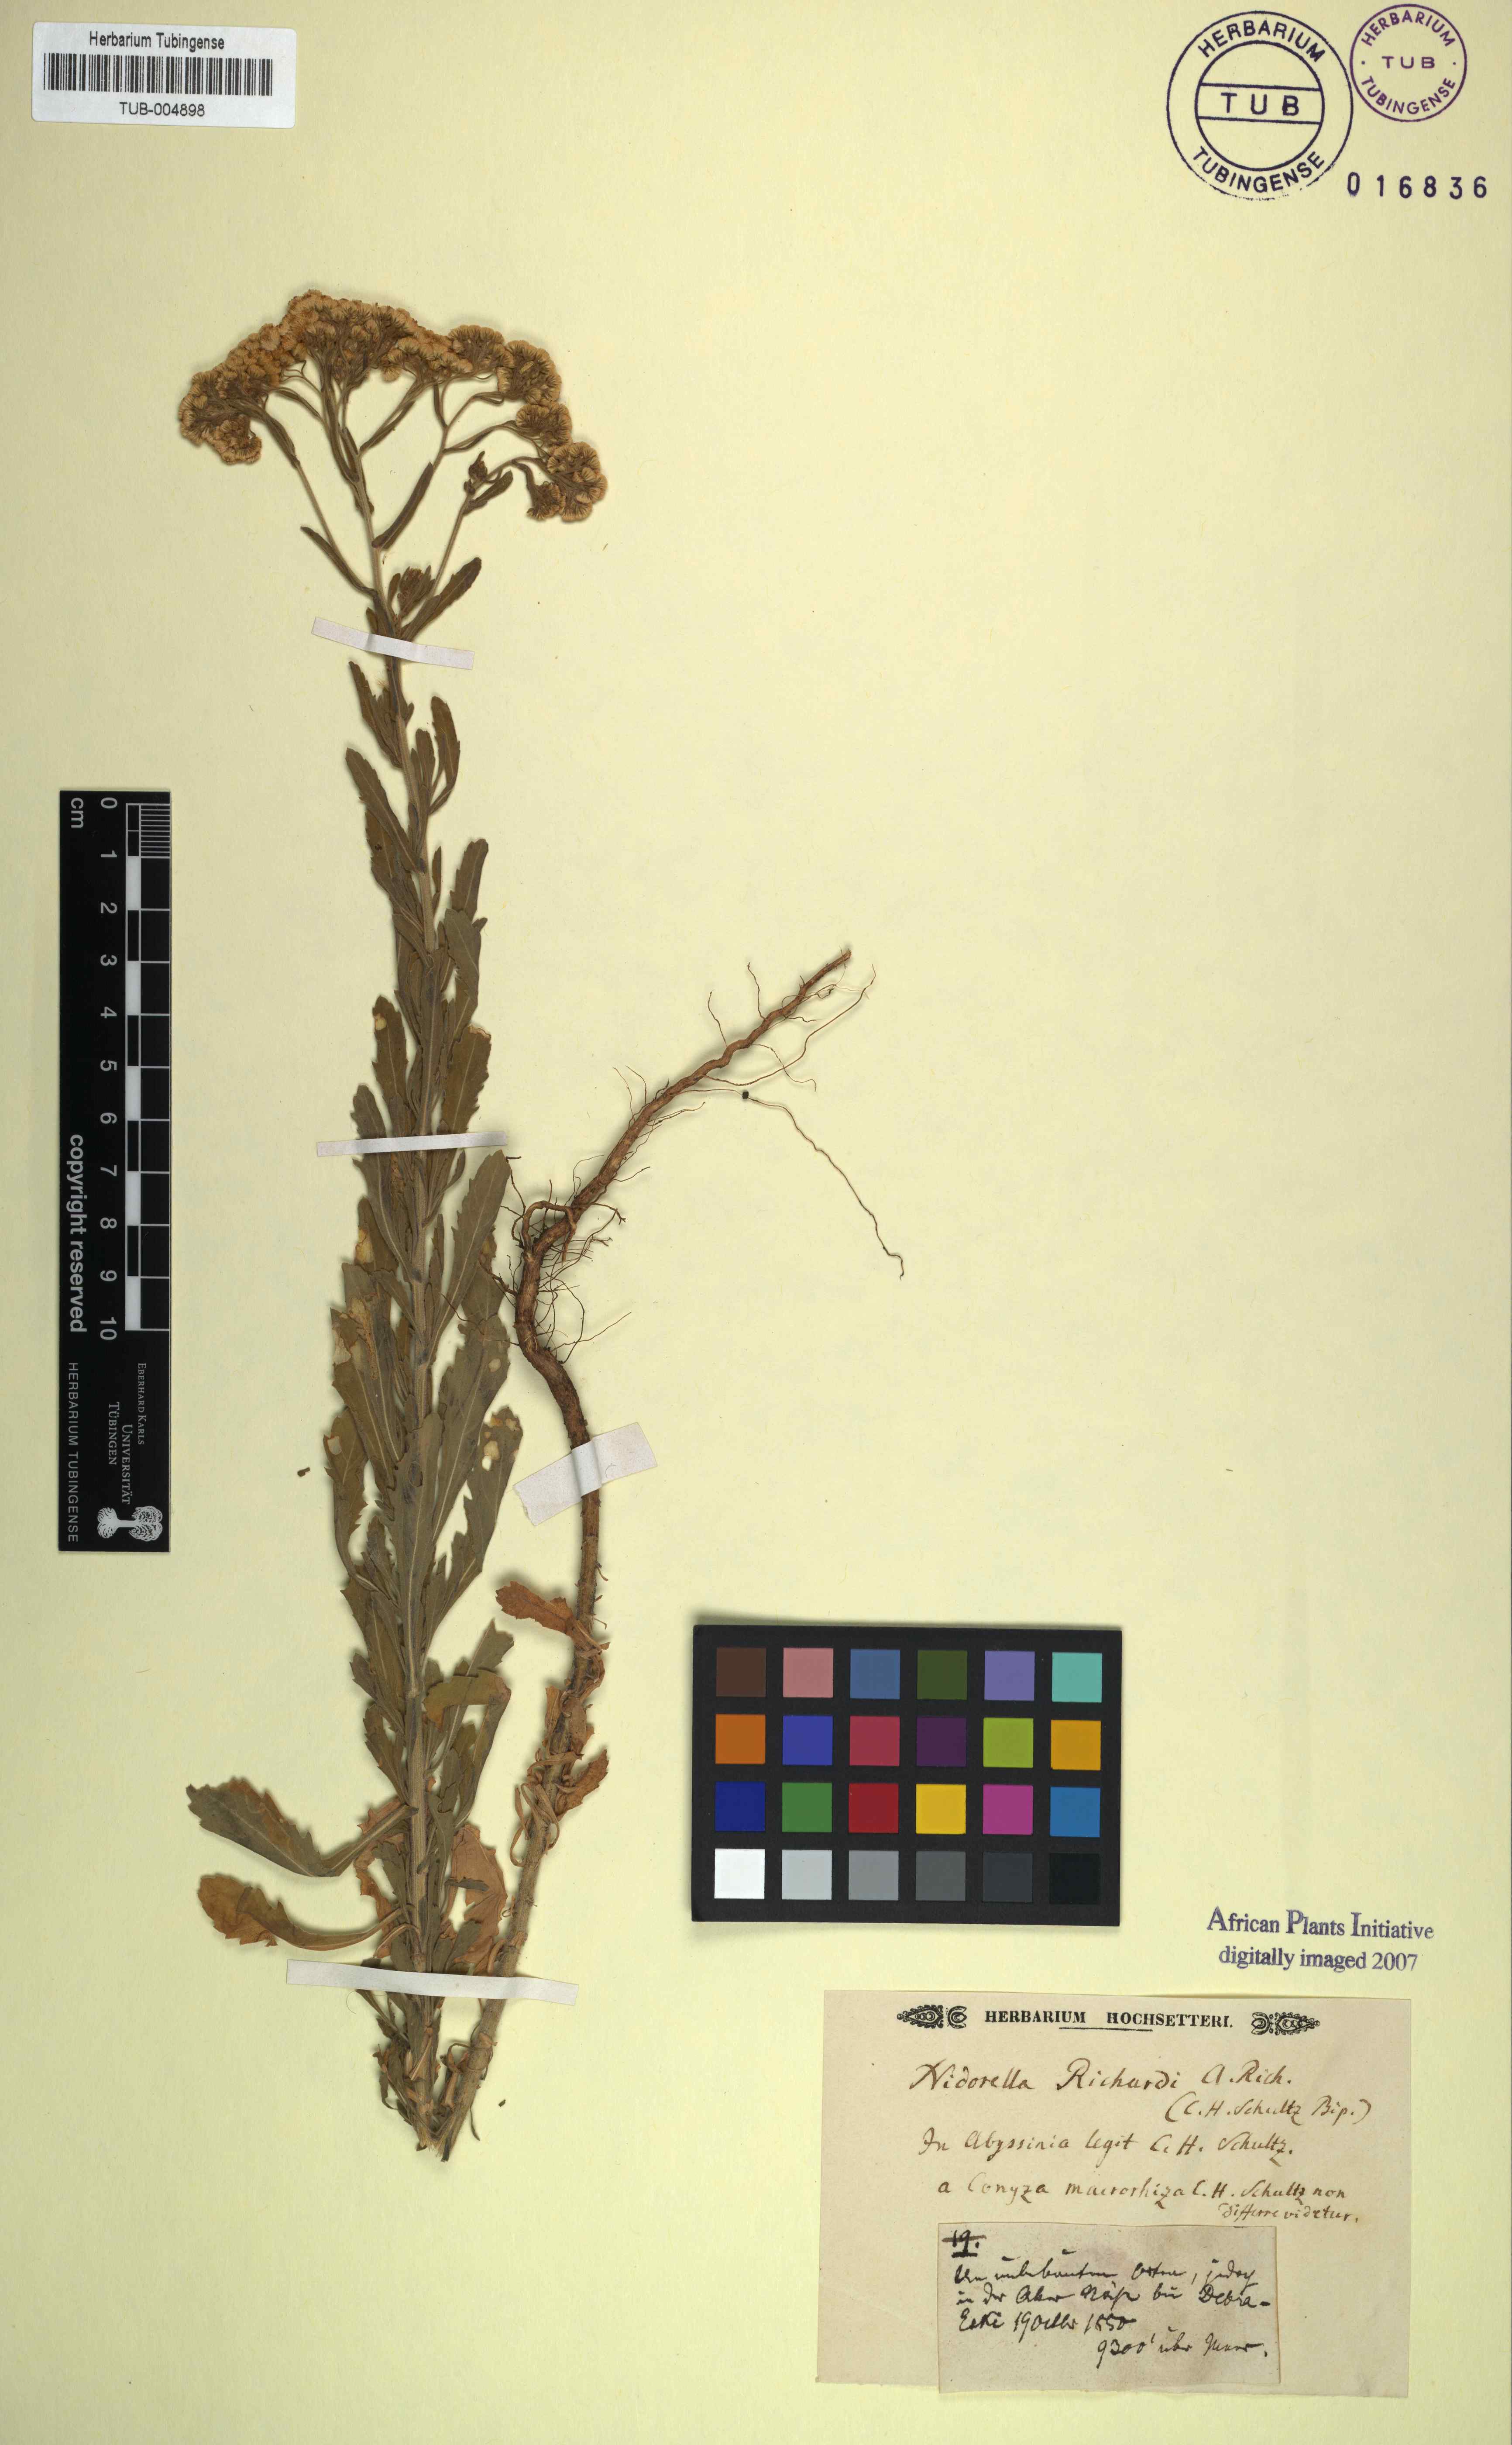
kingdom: Plantae
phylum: Tracheophyta
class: Magnoliopsida
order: Asterales
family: Asteraceae
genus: Nidorella
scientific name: Nidorella
